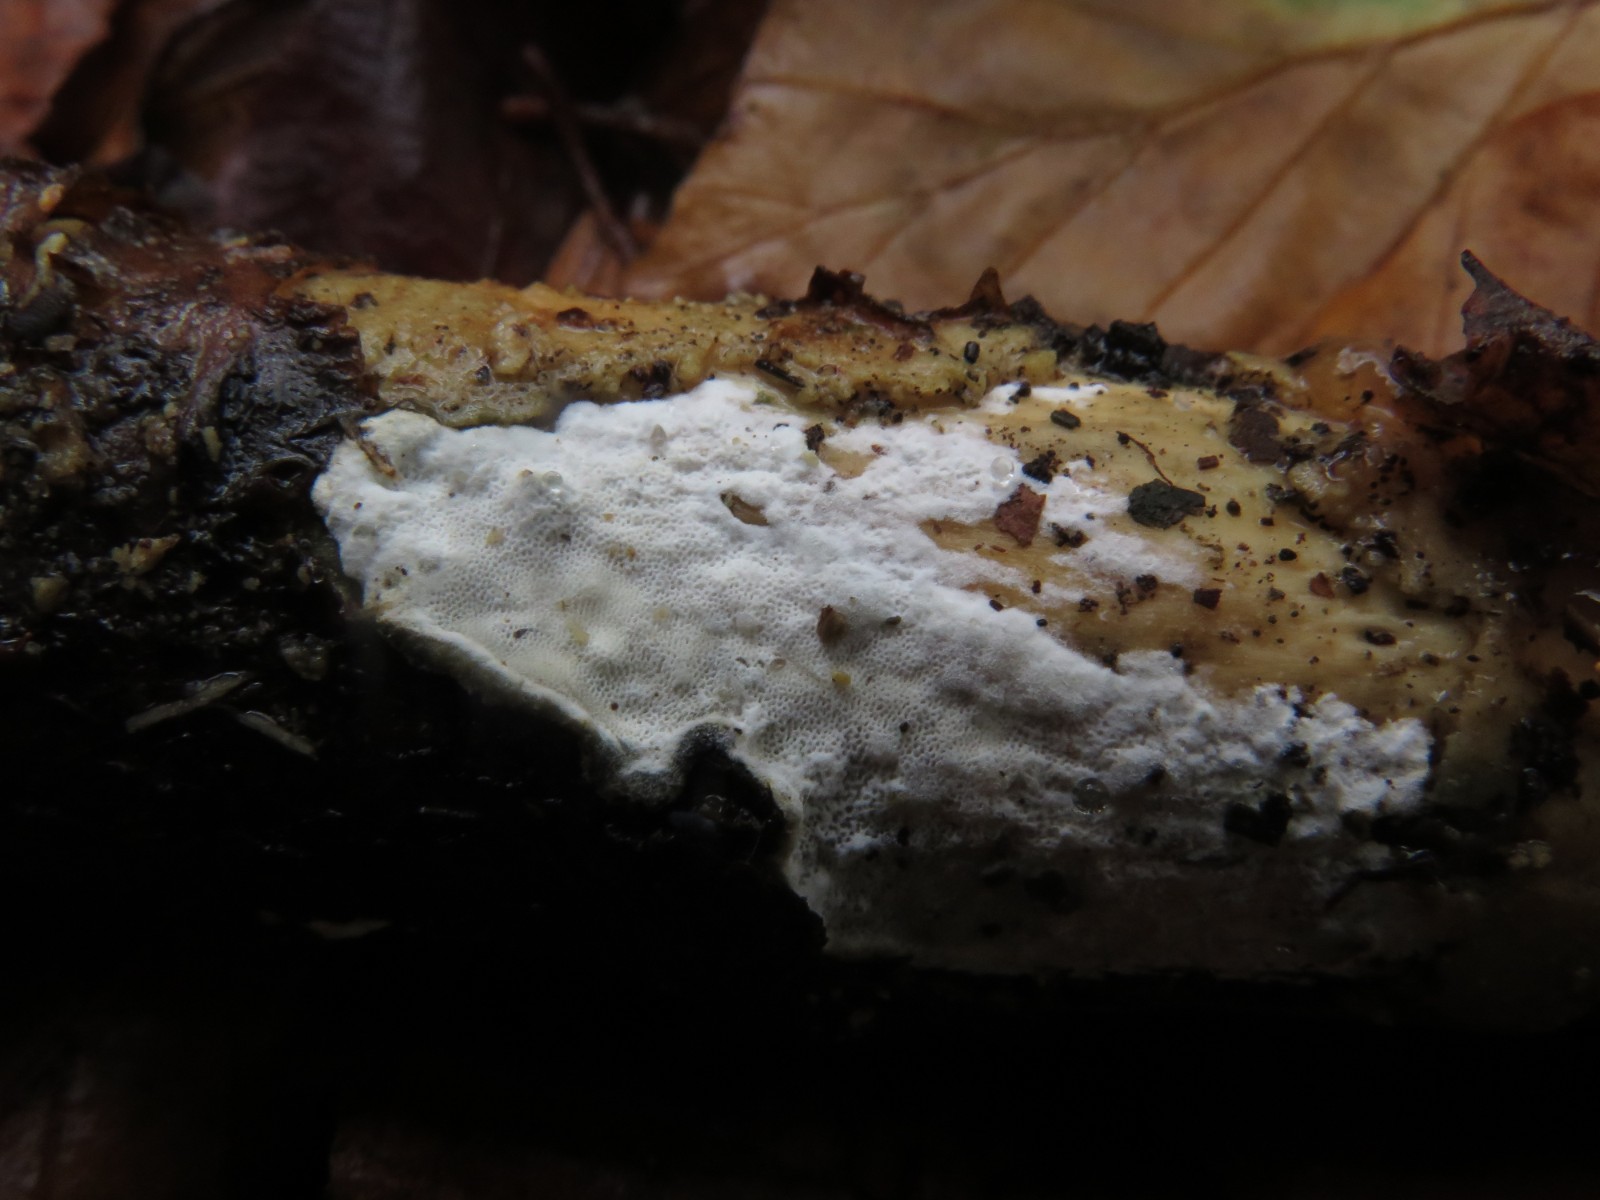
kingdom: Fungi
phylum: Basidiomycota
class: Agaricomycetes
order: Polyporales
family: Incrustoporiaceae
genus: Skeletocutis
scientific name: Skeletocutis nemoralis
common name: stor krystalporesvamp
